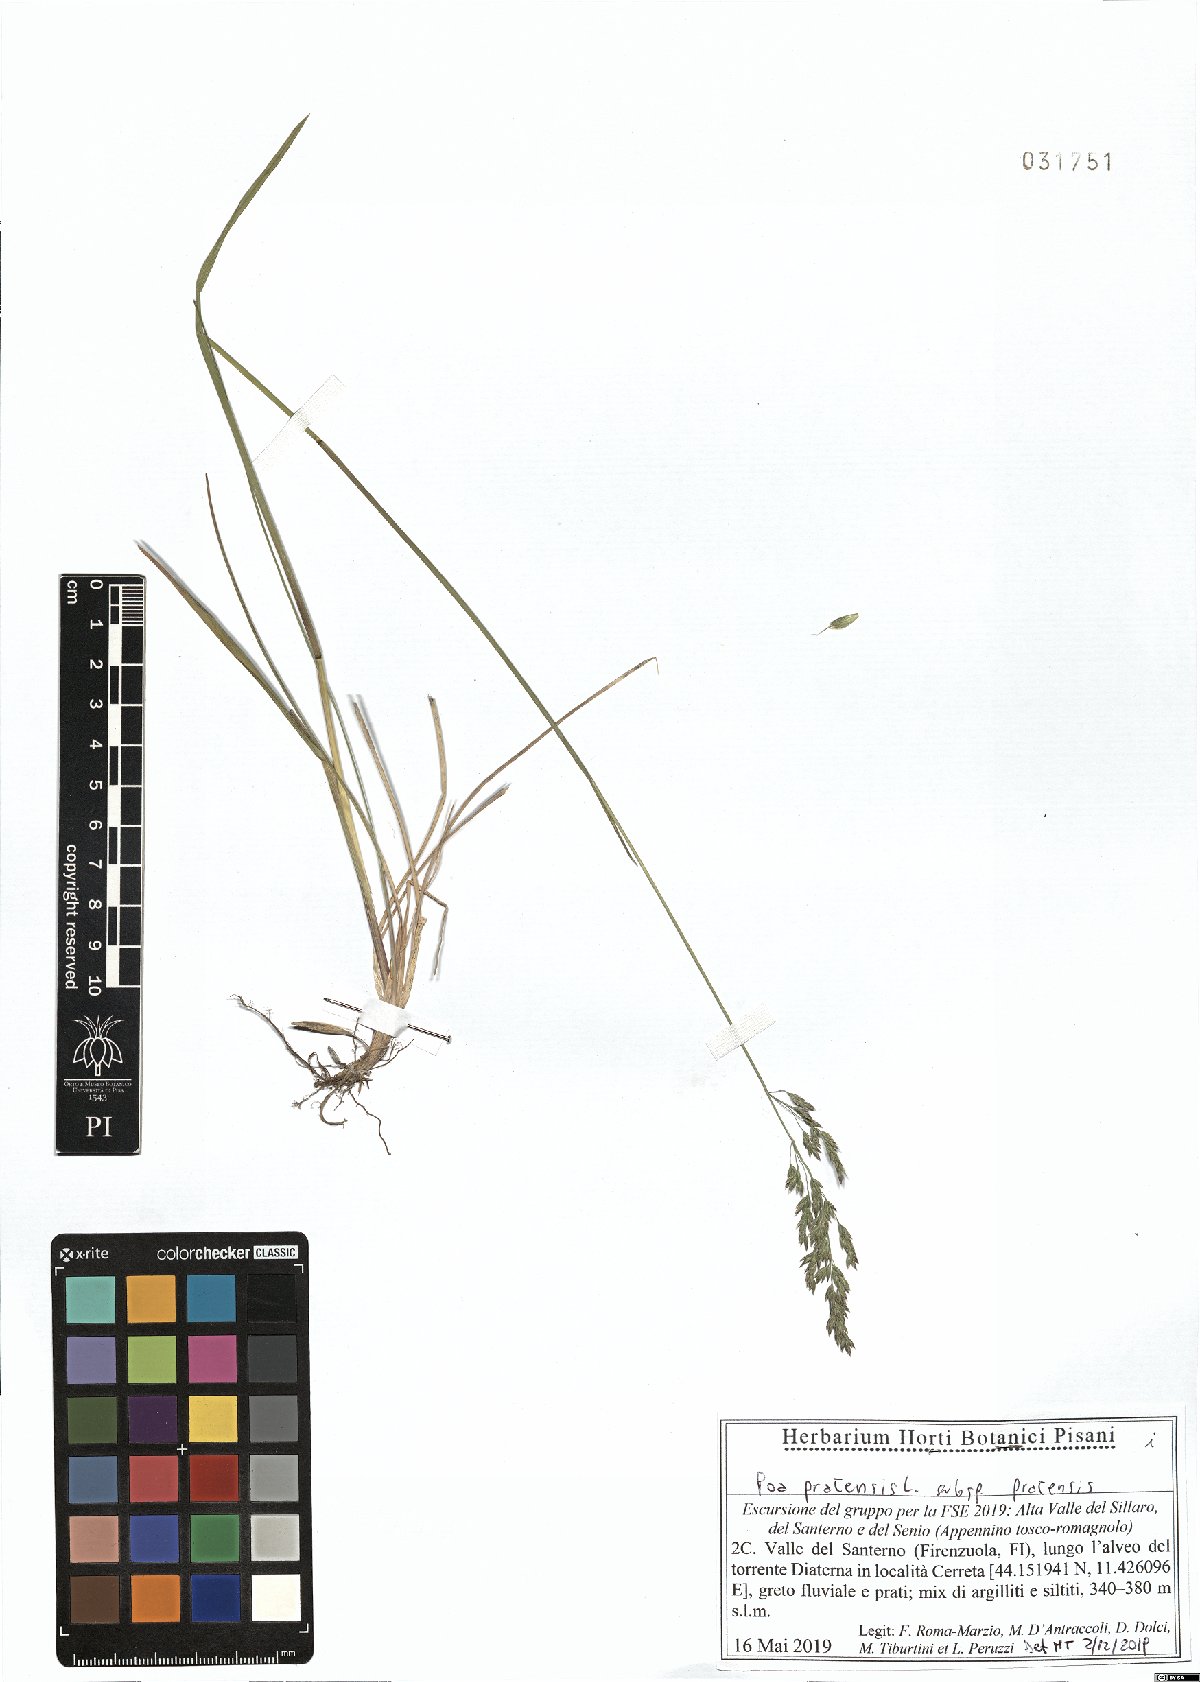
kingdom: Plantae
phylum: Tracheophyta
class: Liliopsida
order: Poales
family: Poaceae
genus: Poa
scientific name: Poa pratensis
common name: Kentucky bluegrass
